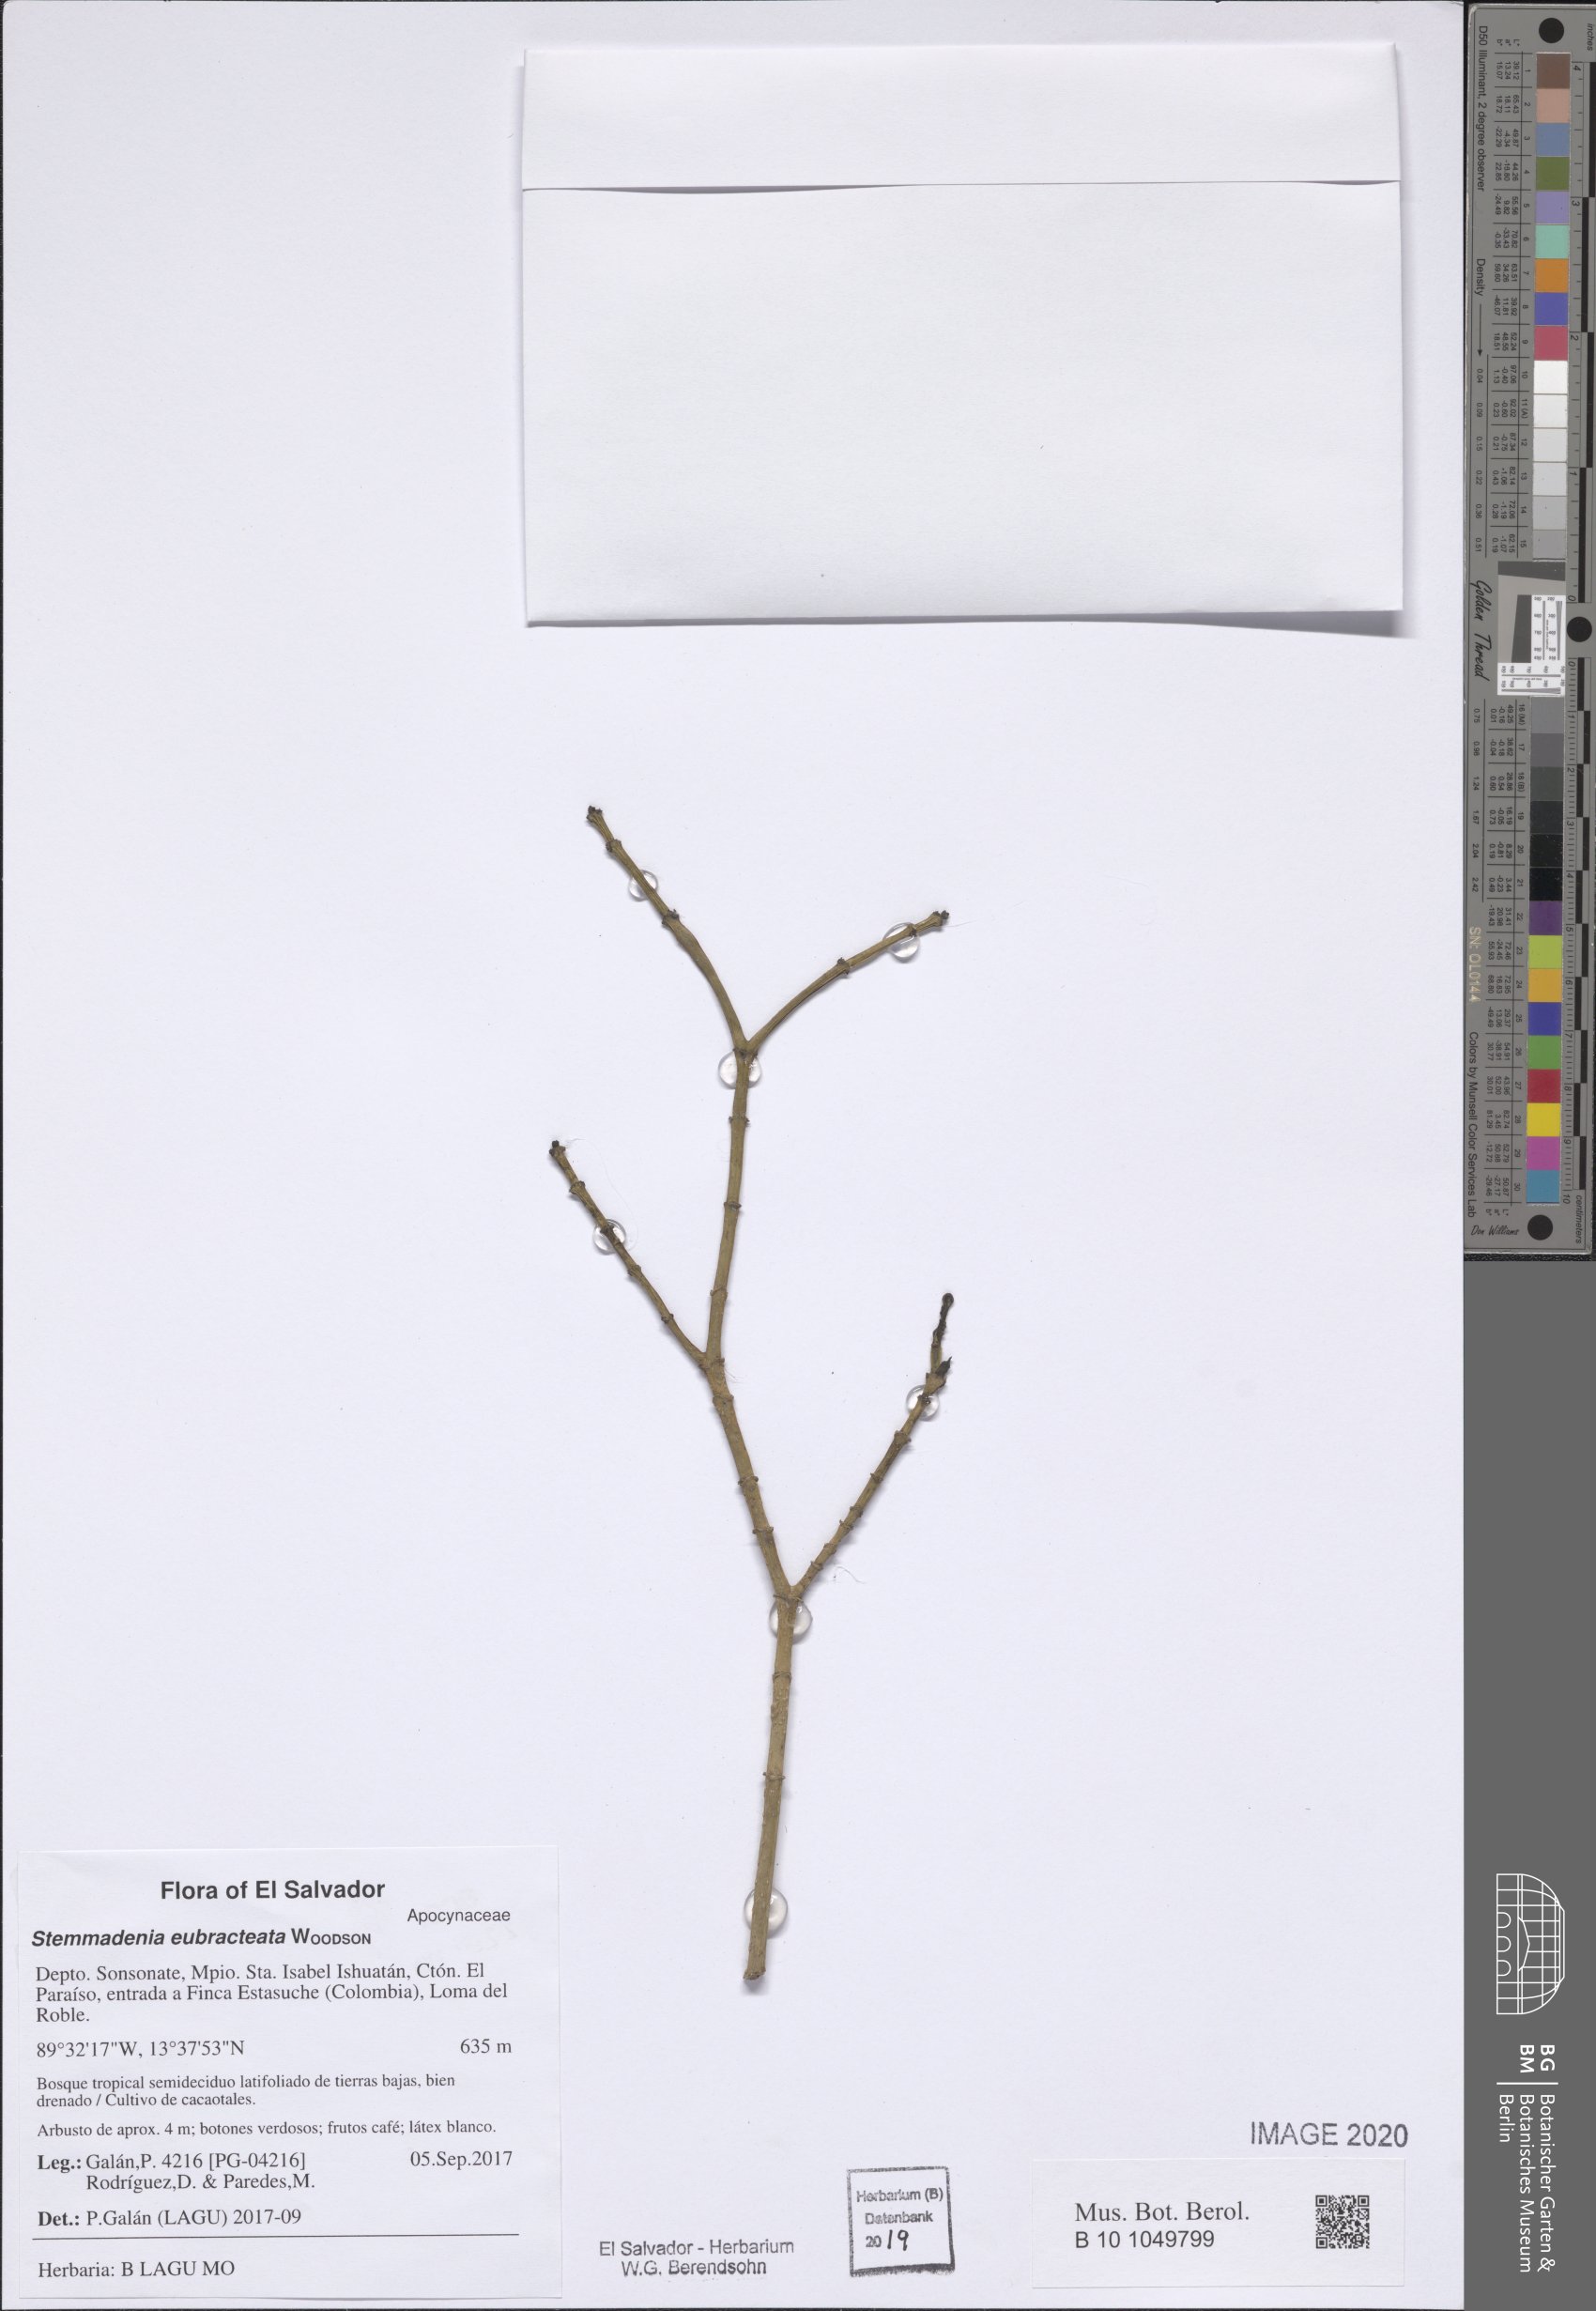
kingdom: Plantae
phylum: Tracheophyta
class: Magnoliopsida
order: Gentianales
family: Apocynaceae
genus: Tabernaemontana
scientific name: Tabernaemontana eubracteata
